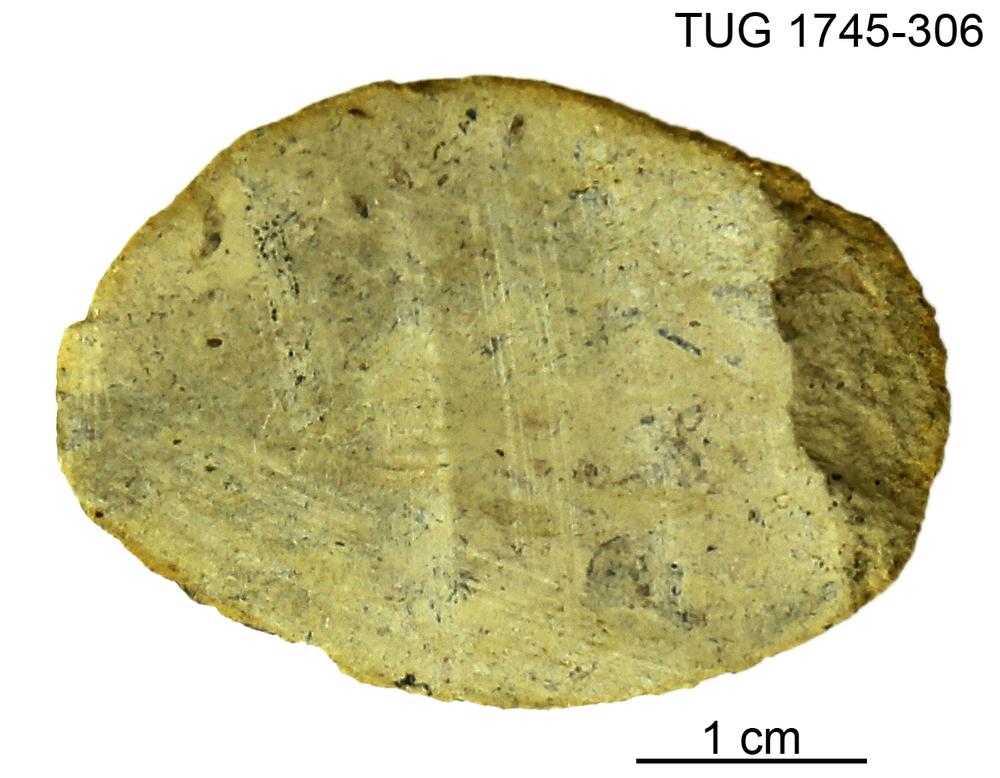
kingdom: Animalia
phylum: Mollusca
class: Cephalopoda
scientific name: Cephalopoda
